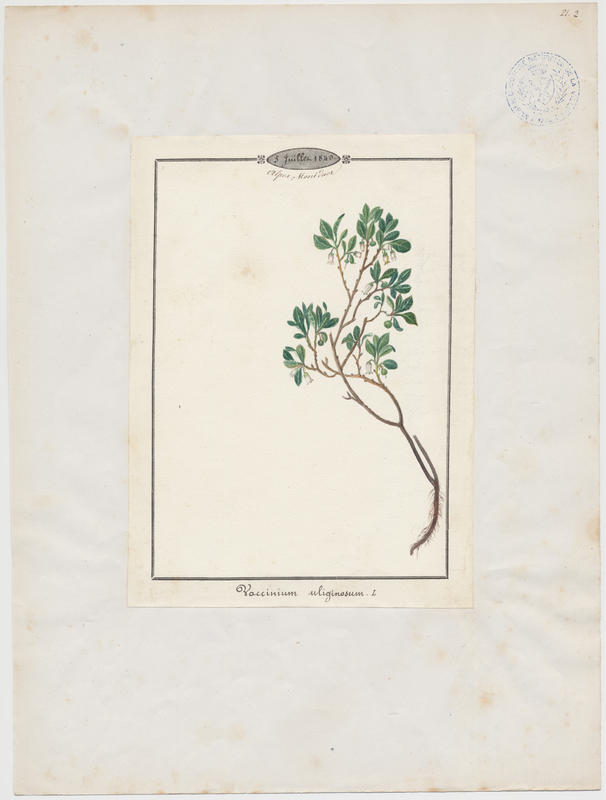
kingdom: Plantae
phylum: Tracheophyta
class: Magnoliopsida
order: Ericales
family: Ericaceae
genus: Vaccinium
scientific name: Vaccinium uliginosum
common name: Bog bilberry
